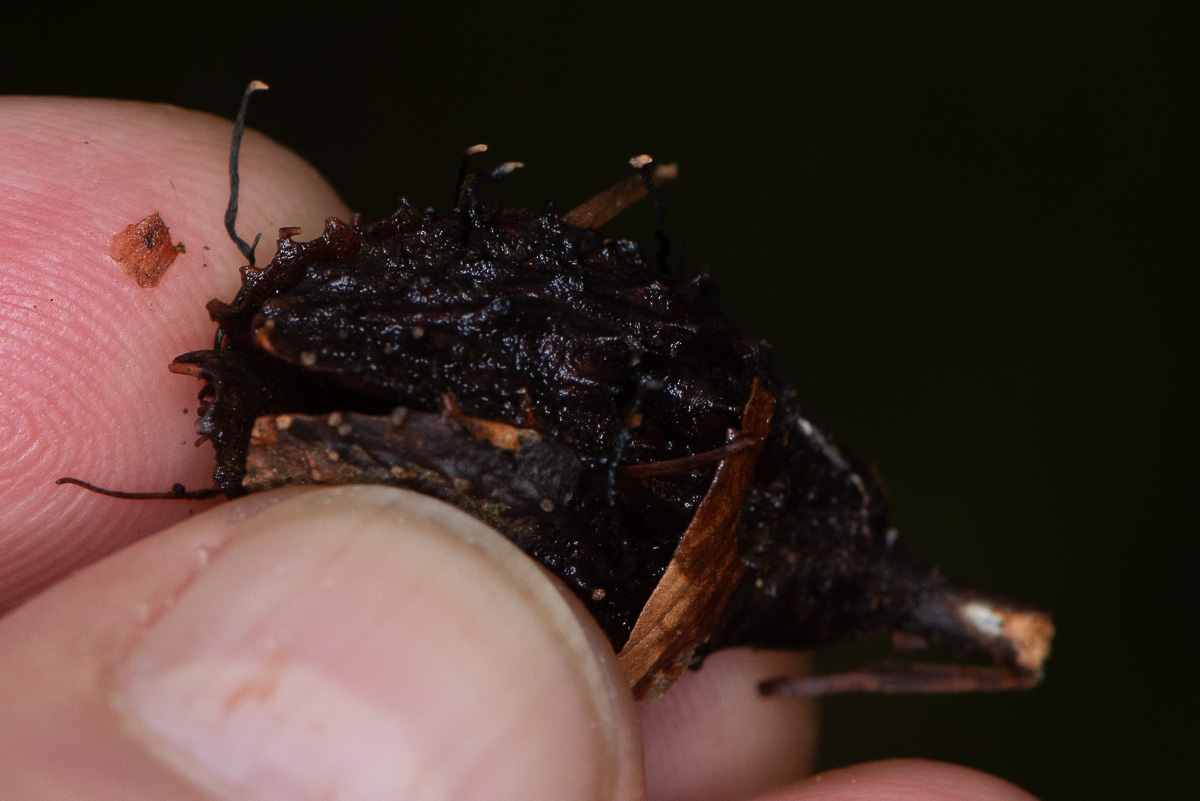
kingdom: Fungi
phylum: Ascomycota
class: Sordariomycetes
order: Xylariales
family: Xylariaceae
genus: Xylaria
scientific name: Xylaria carpophila
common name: bogskål-stødsvamp
